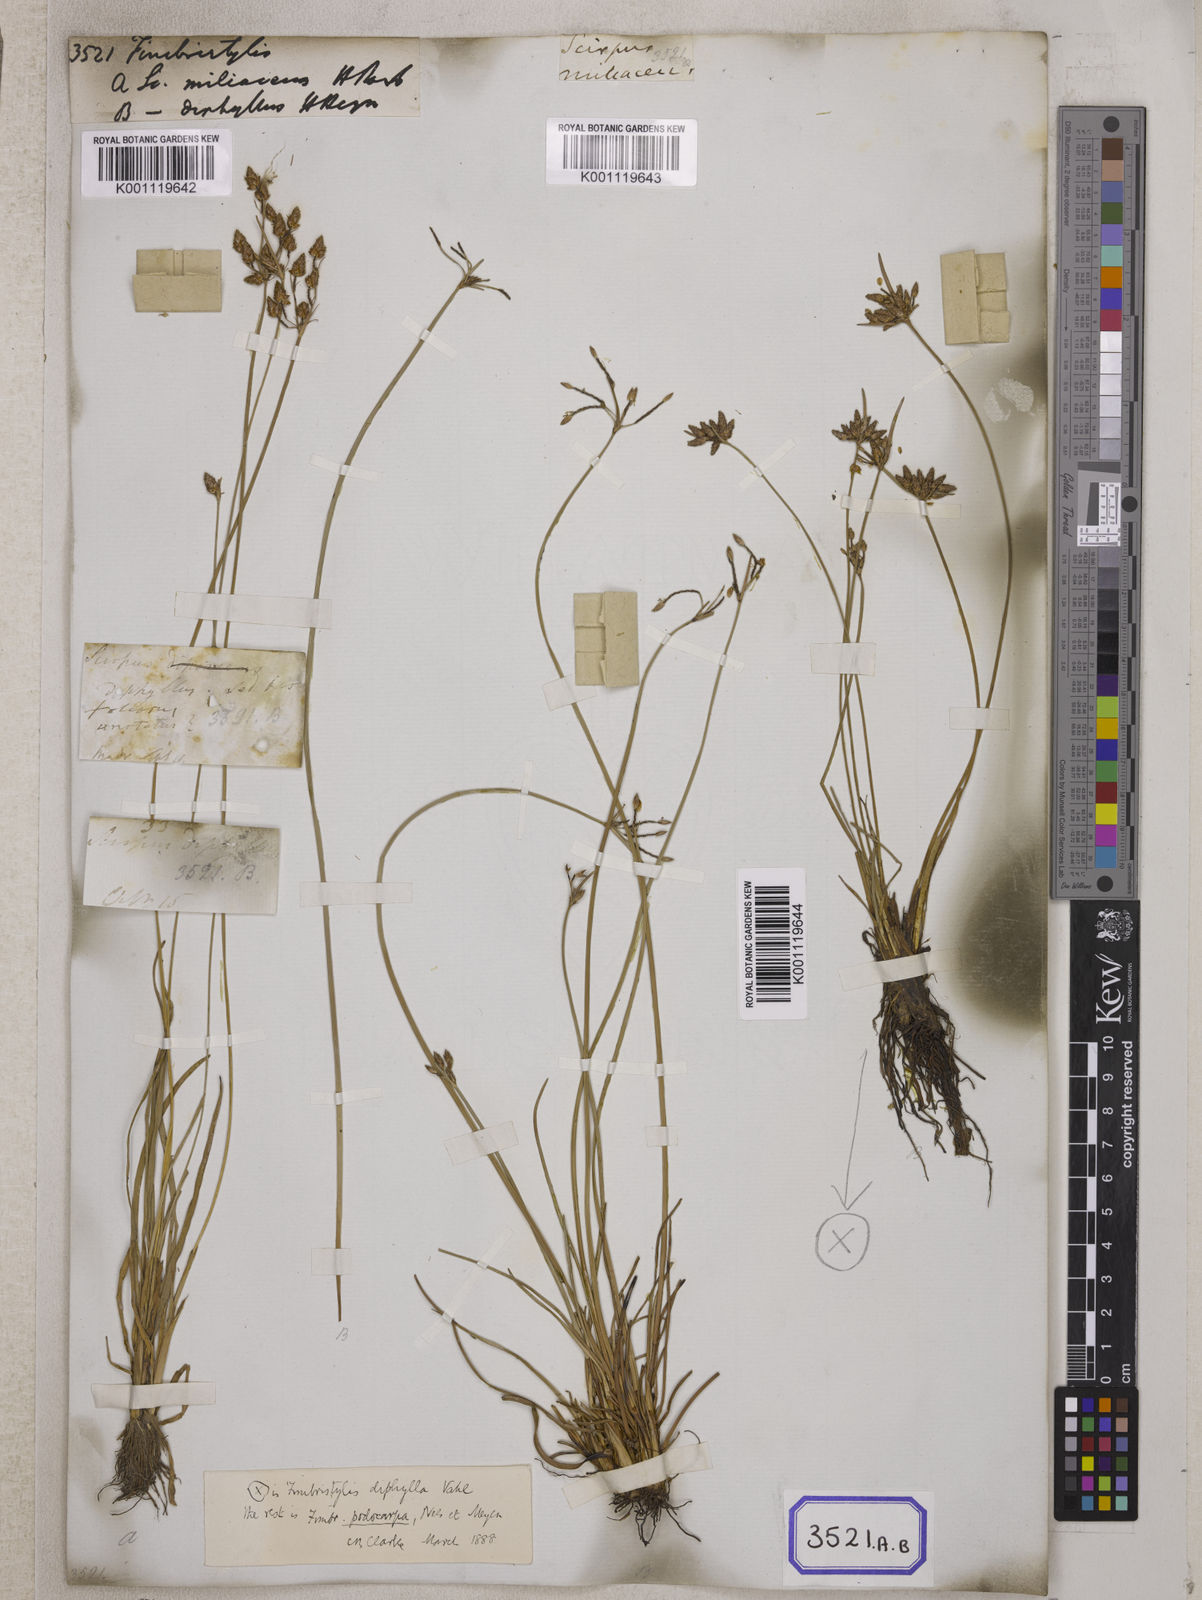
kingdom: Plantae
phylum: Tracheophyta
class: Liliopsida
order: Poales
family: Cyperaceae
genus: Fimbristylis
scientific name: Fimbristylis
